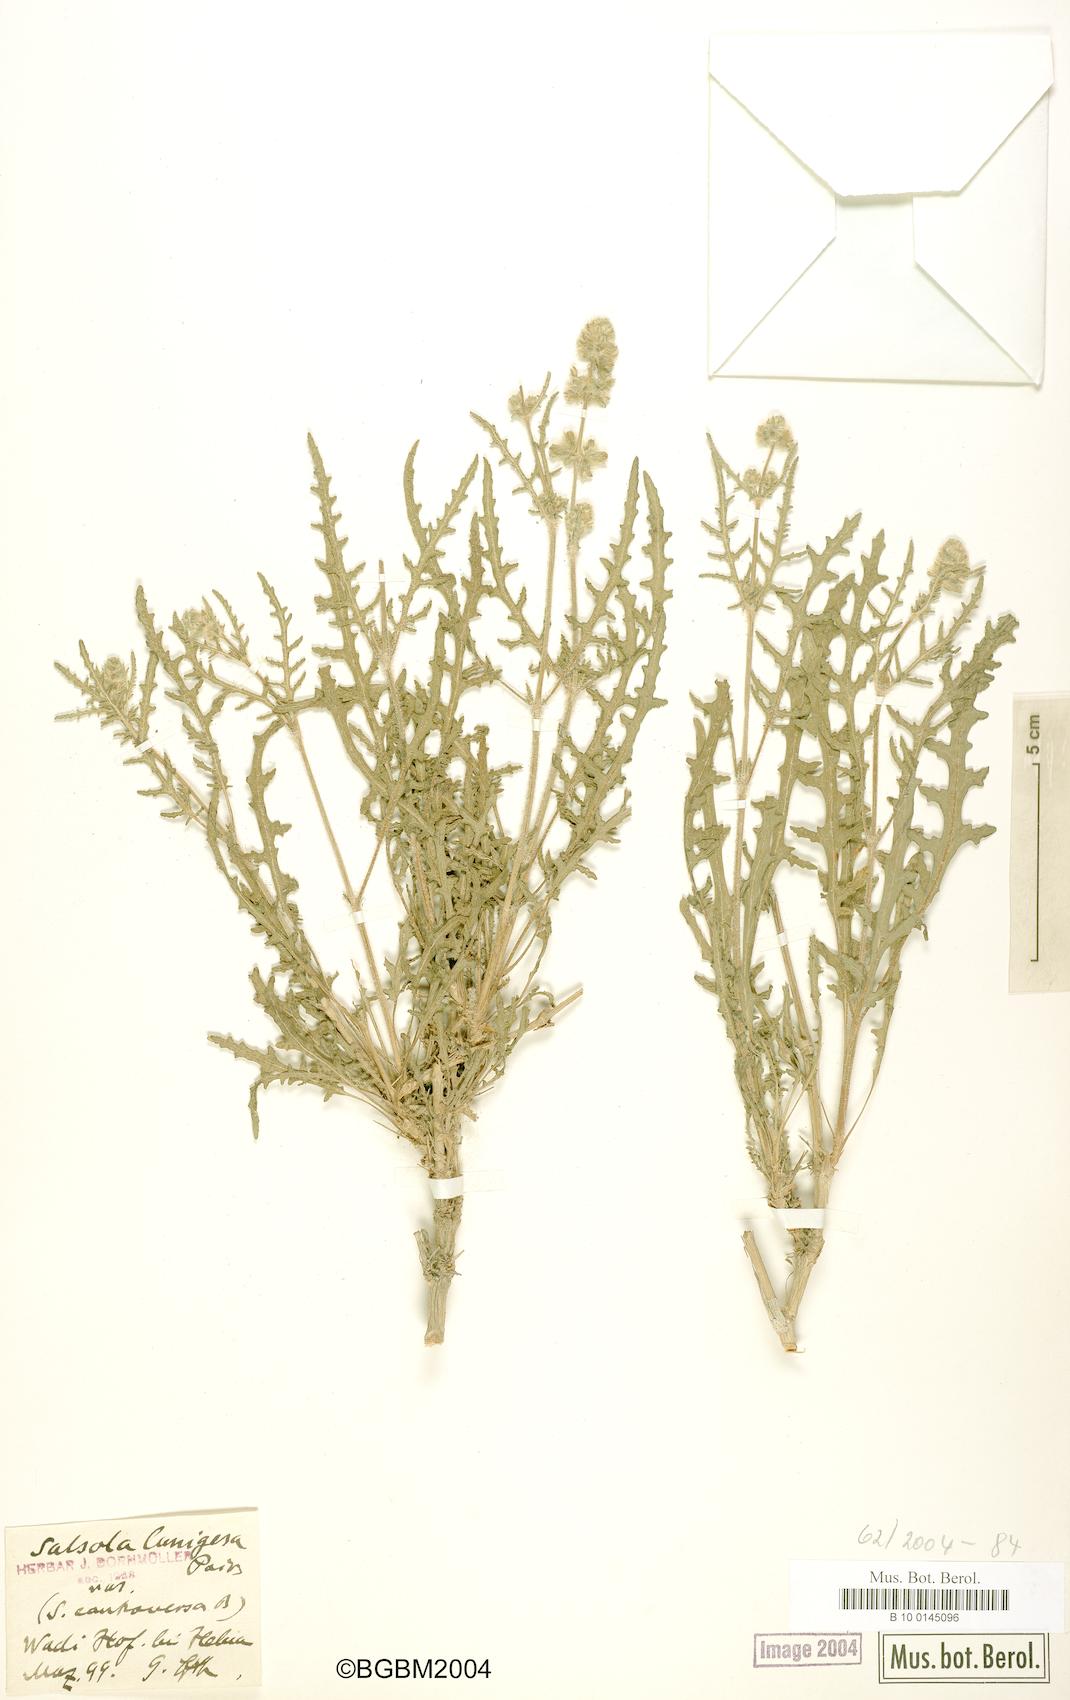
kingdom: Plantae
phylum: Tracheophyta
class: Magnoliopsida
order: Lamiales
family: Lamiaceae
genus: Salvia
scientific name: Salvia lanigera
